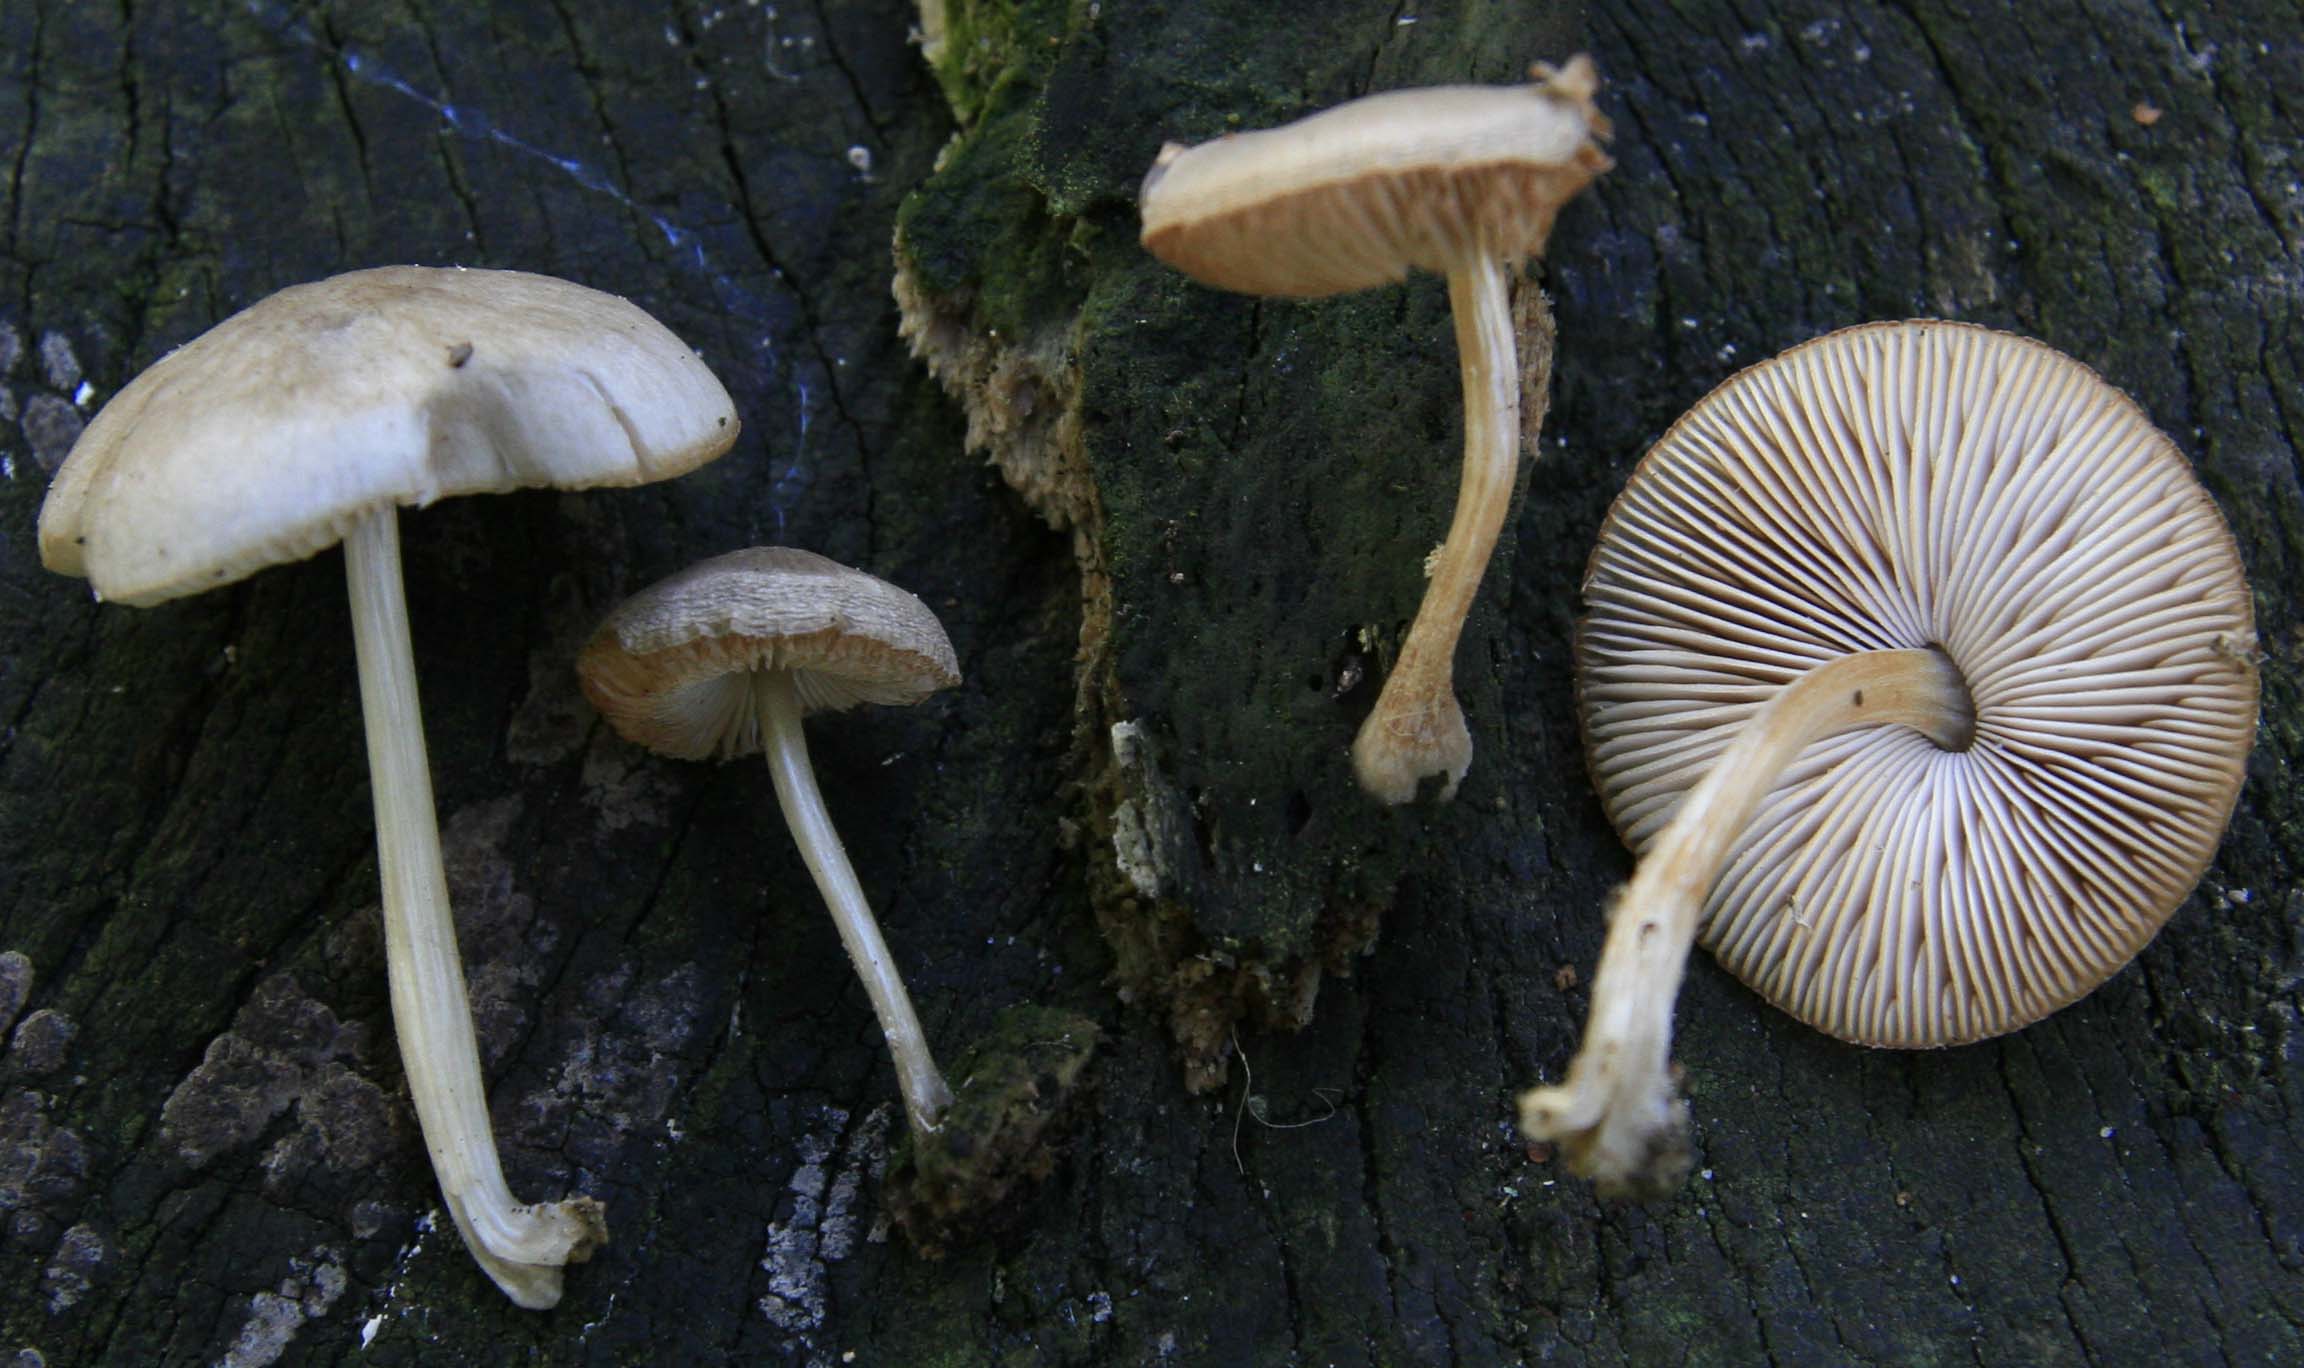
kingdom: Fungi
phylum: Basidiomycota
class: Agaricomycetes
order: Agaricales
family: Pluteaceae
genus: Pluteus
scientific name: Pluteus semibulbosus
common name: knoldet skærmhat
